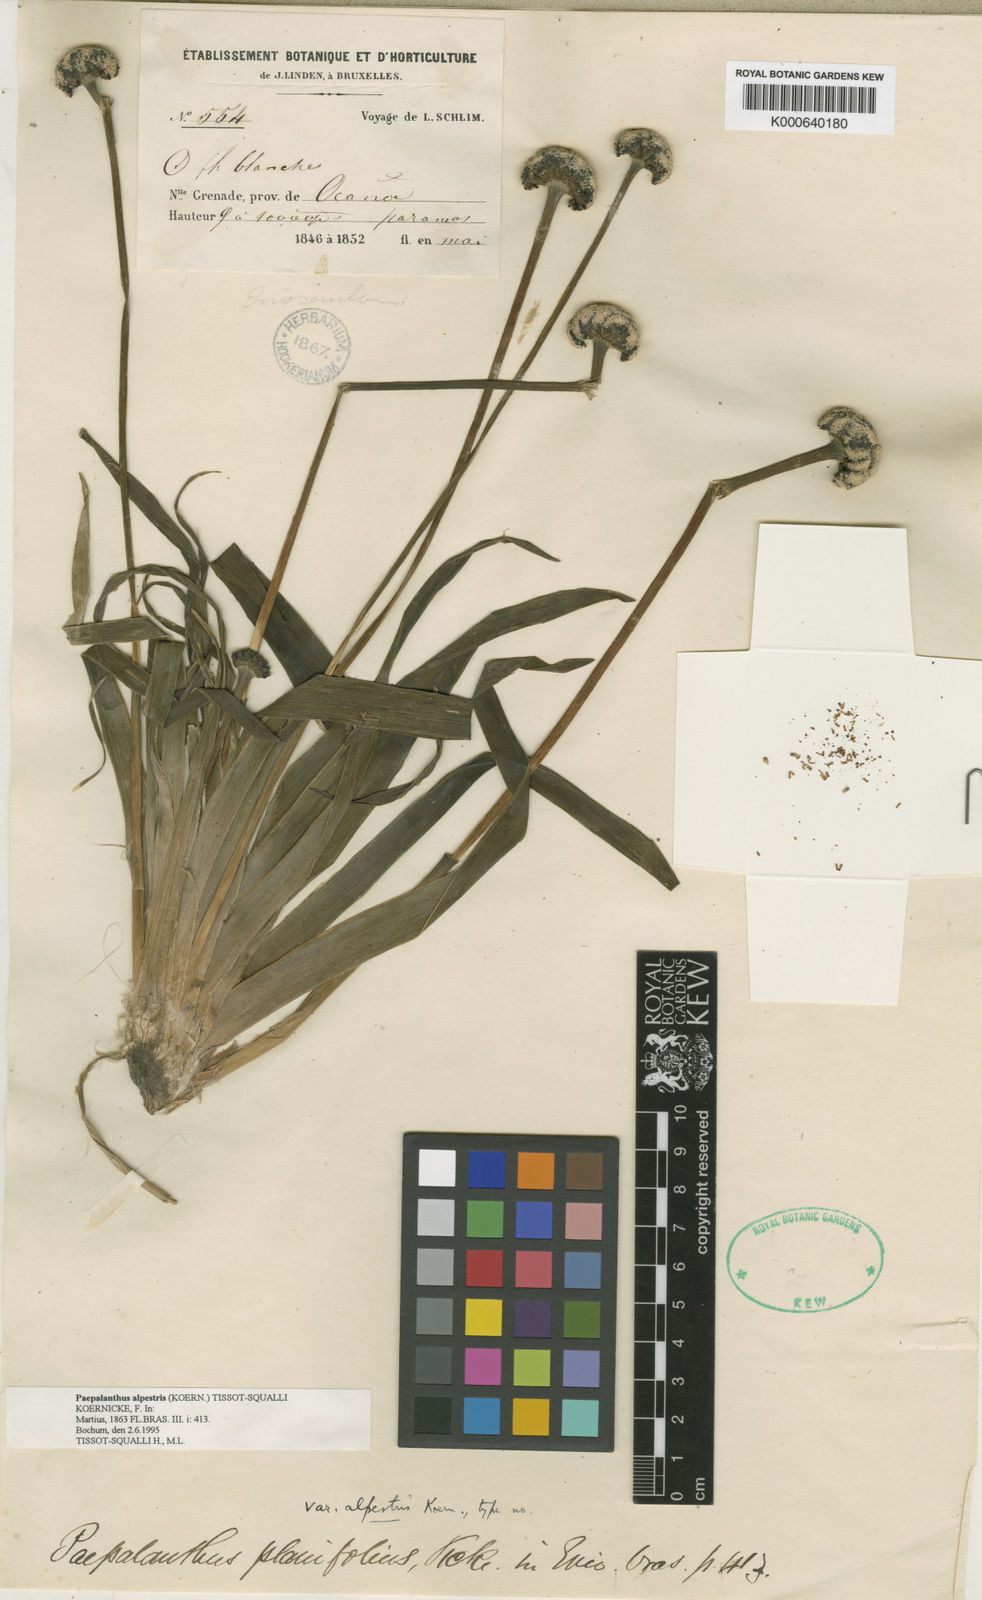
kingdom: Plantae
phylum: Tracheophyta
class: Liliopsida
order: Poales
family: Eriocaulaceae
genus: Paepalanthus
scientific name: Paepalanthus
